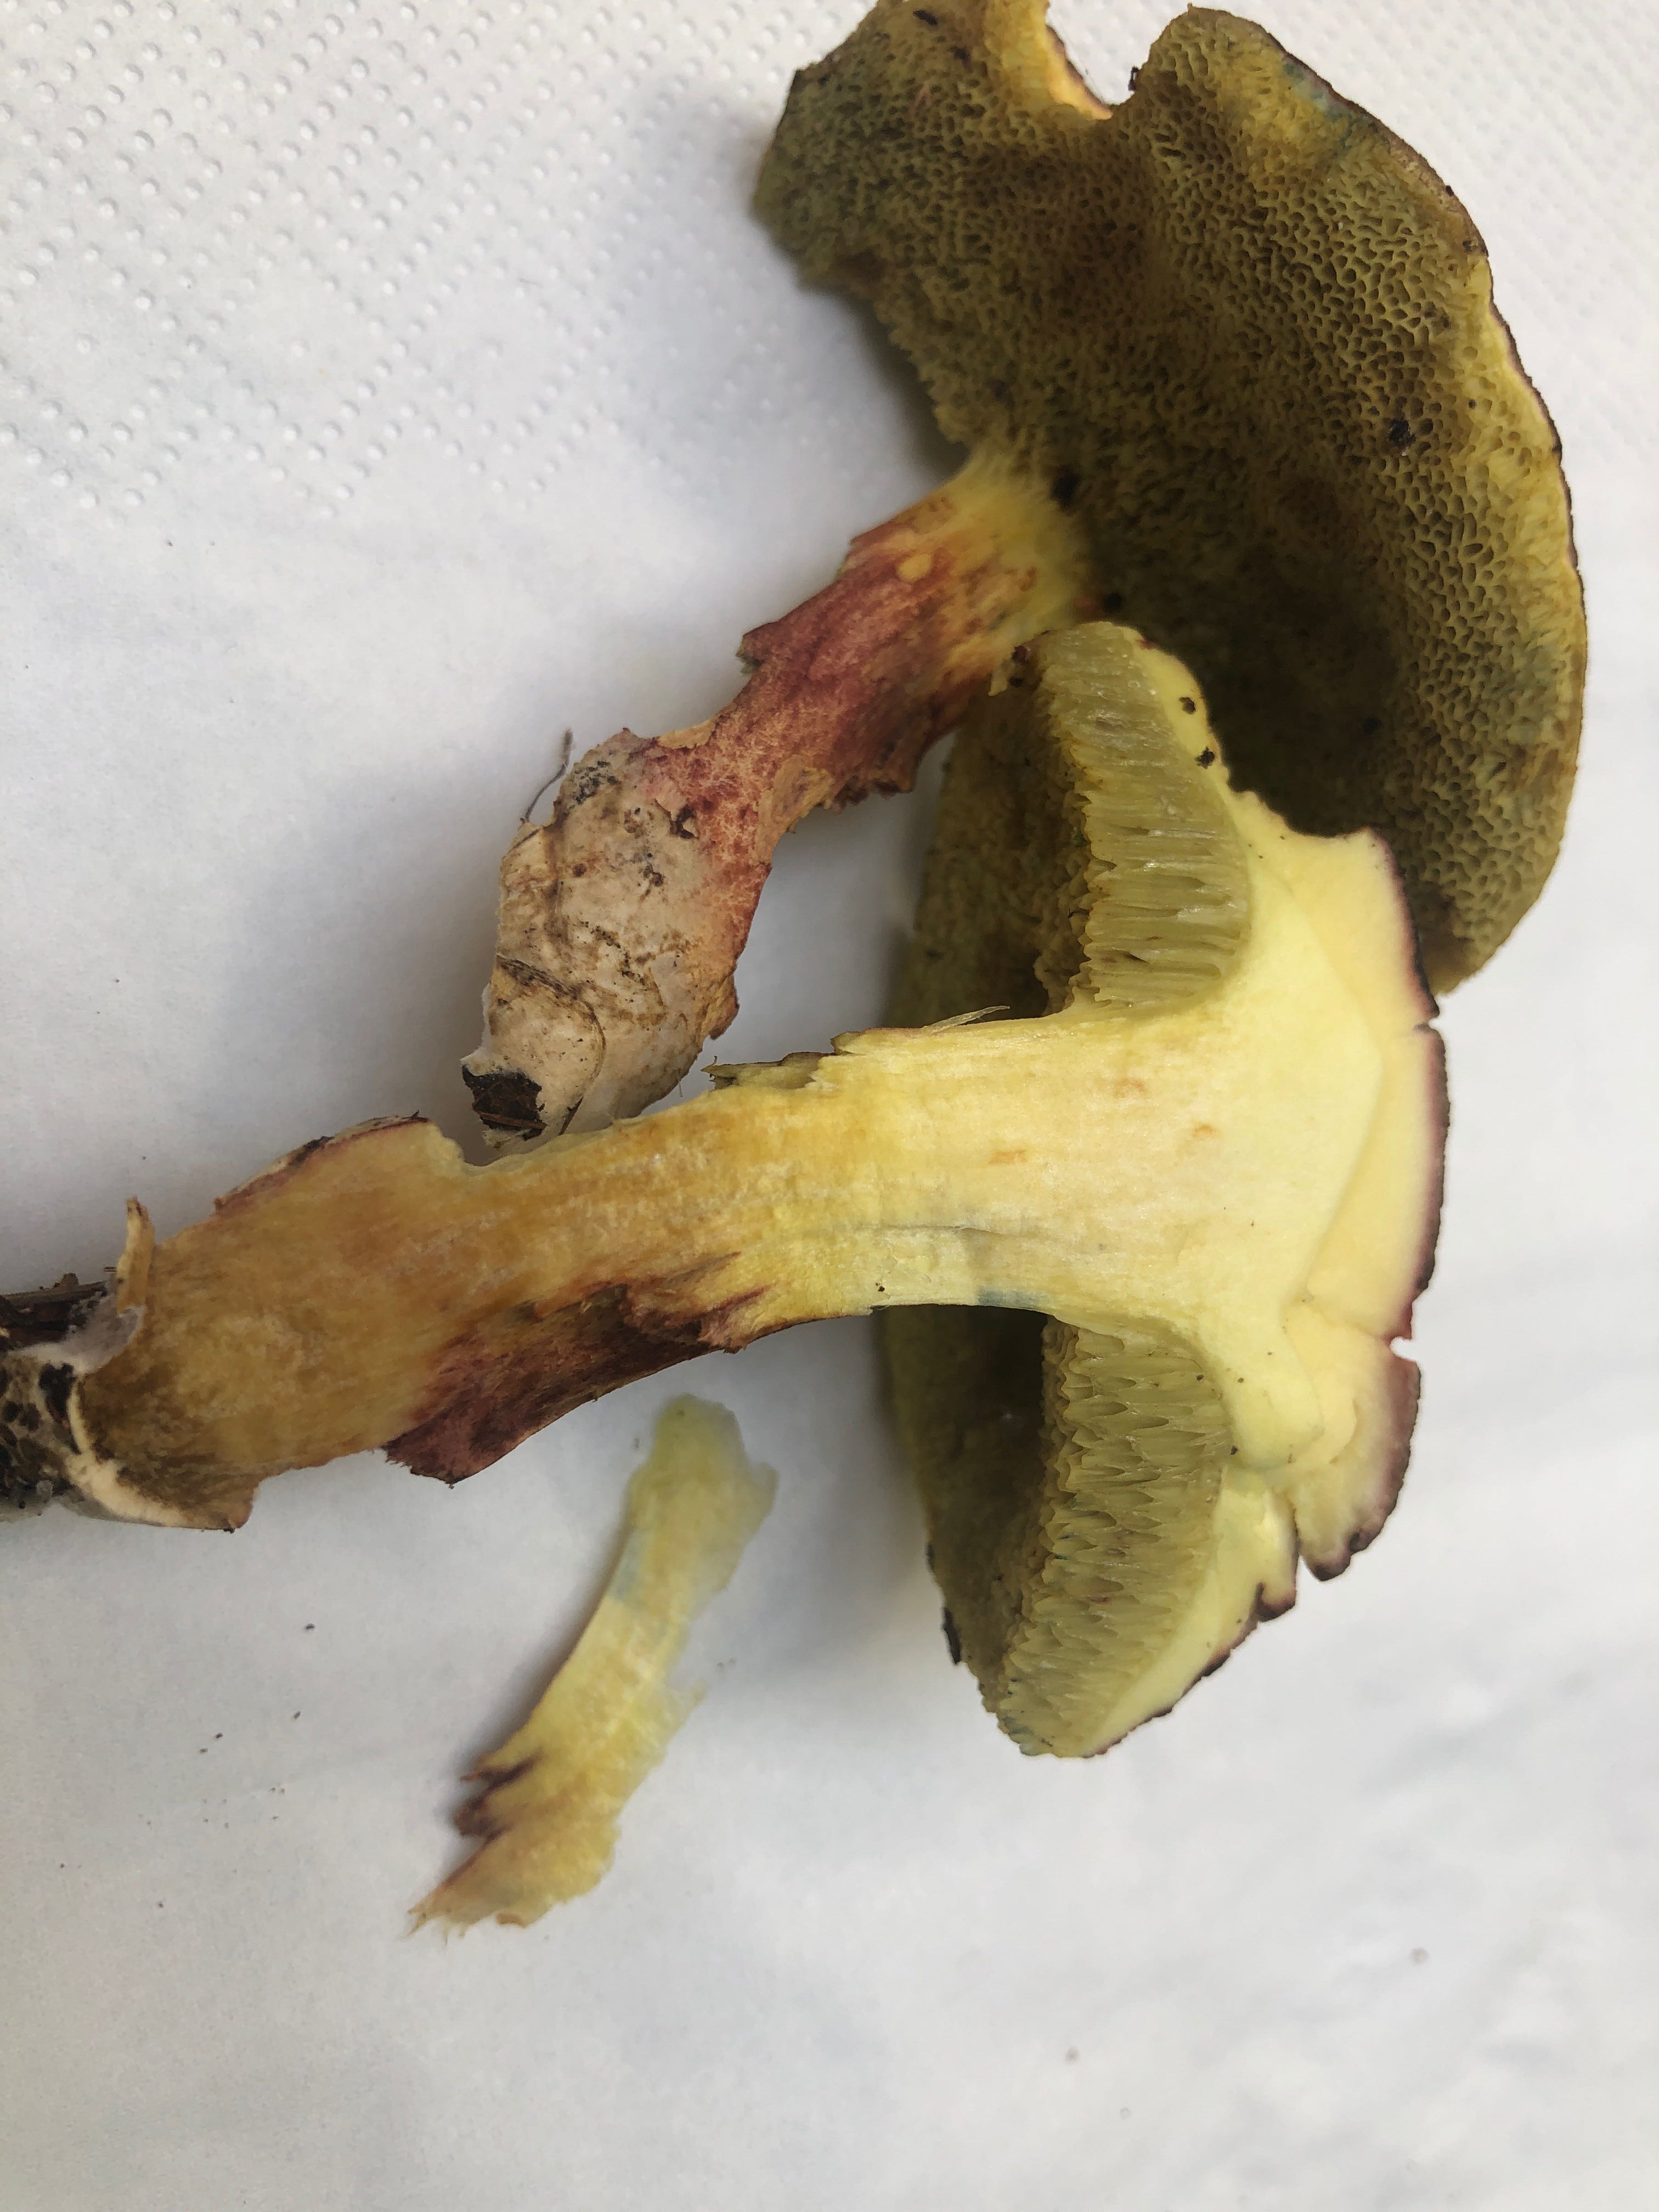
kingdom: Fungi
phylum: Basidiomycota
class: Agaricomycetes
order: Boletales
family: Boletaceae
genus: Xerocomellus
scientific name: Xerocomellus chrysenteron
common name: rødsprukken rørhat
